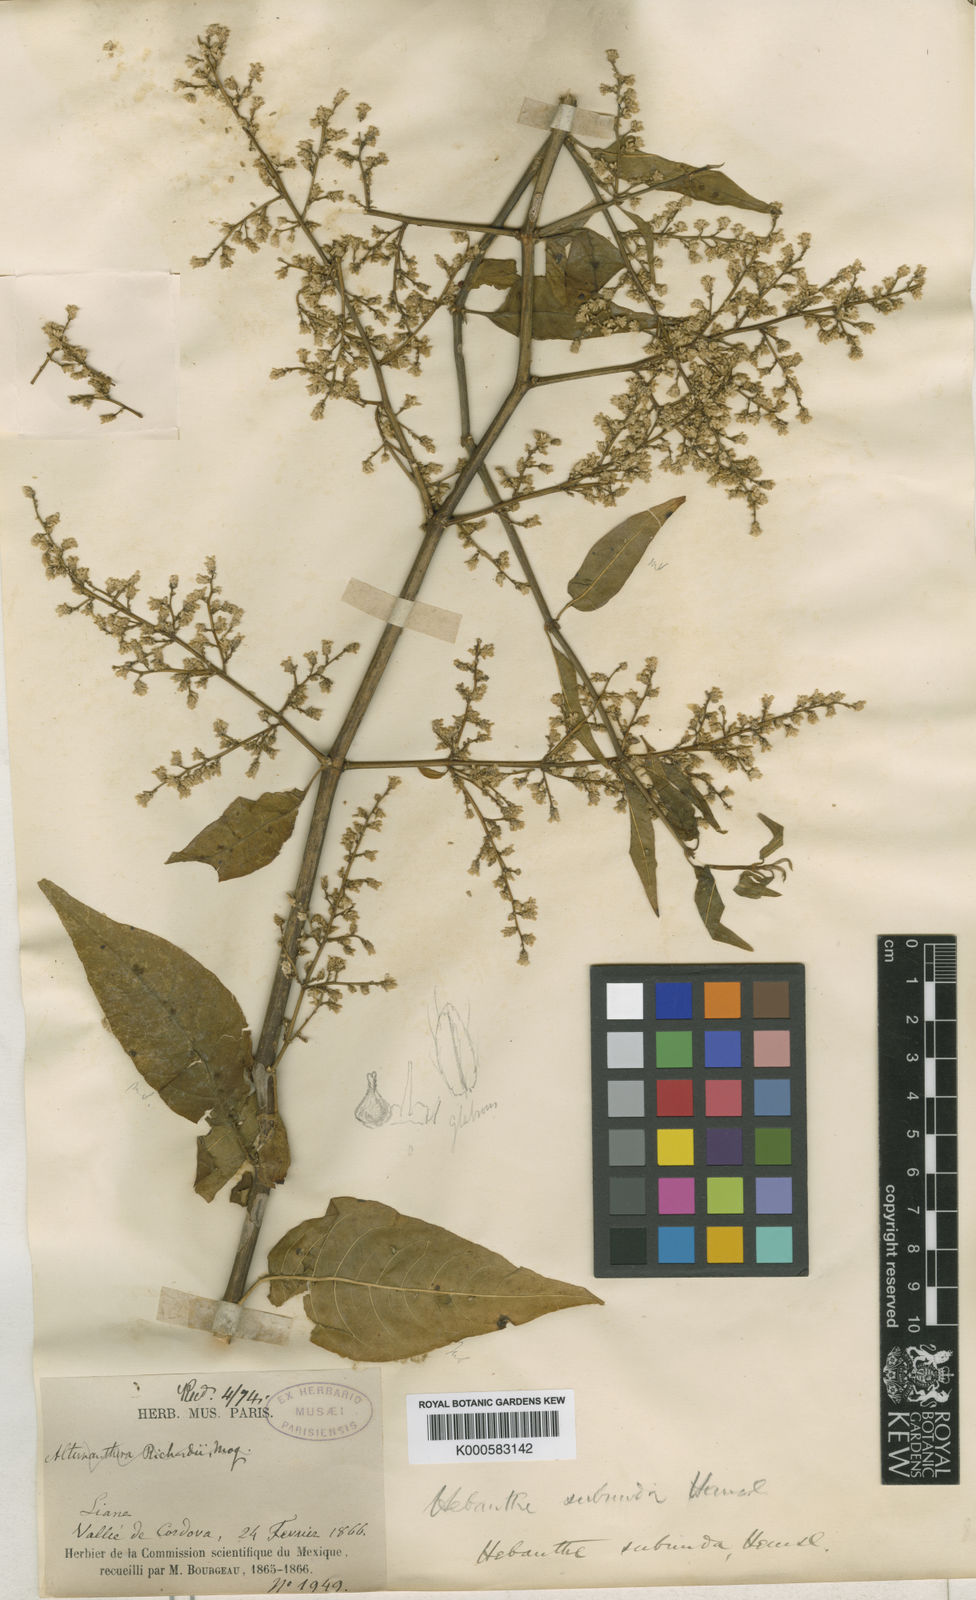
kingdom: Plantae
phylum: Tracheophyta
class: Magnoliopsida
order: Caryophyllales
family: Amaranthaceae
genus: Iresine
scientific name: Iresine interrupta
